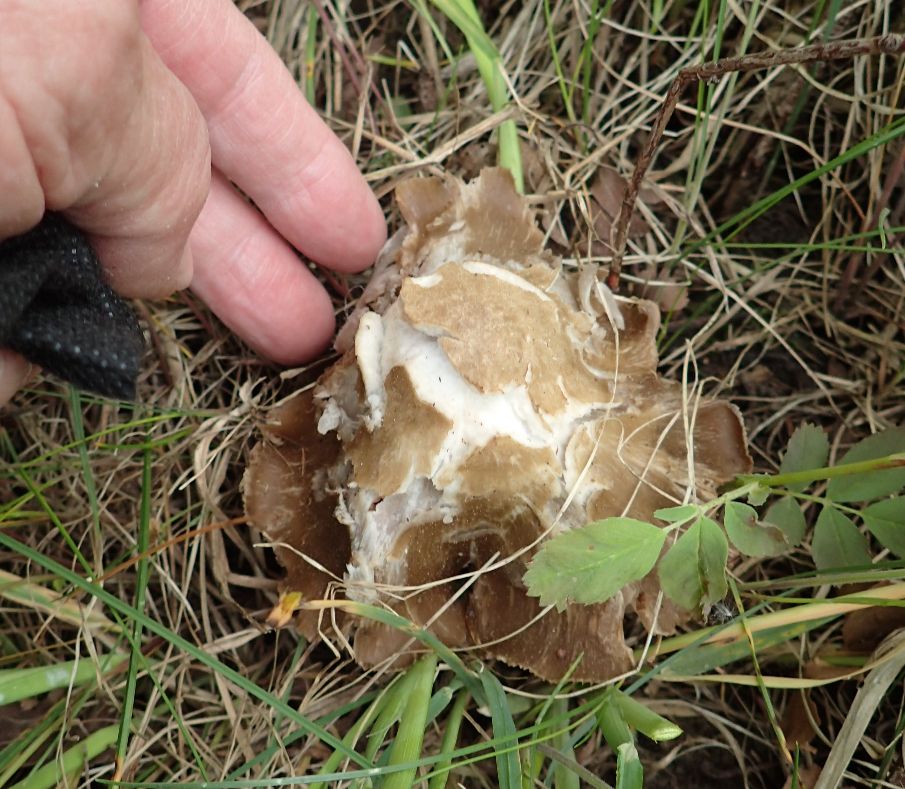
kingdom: Fungi
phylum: Basidiomycota
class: Agaricomycetes
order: Agaricales
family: Entolomataceae
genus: Entoloma
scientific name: Entoloma clypeatum
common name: flammet rødblad
